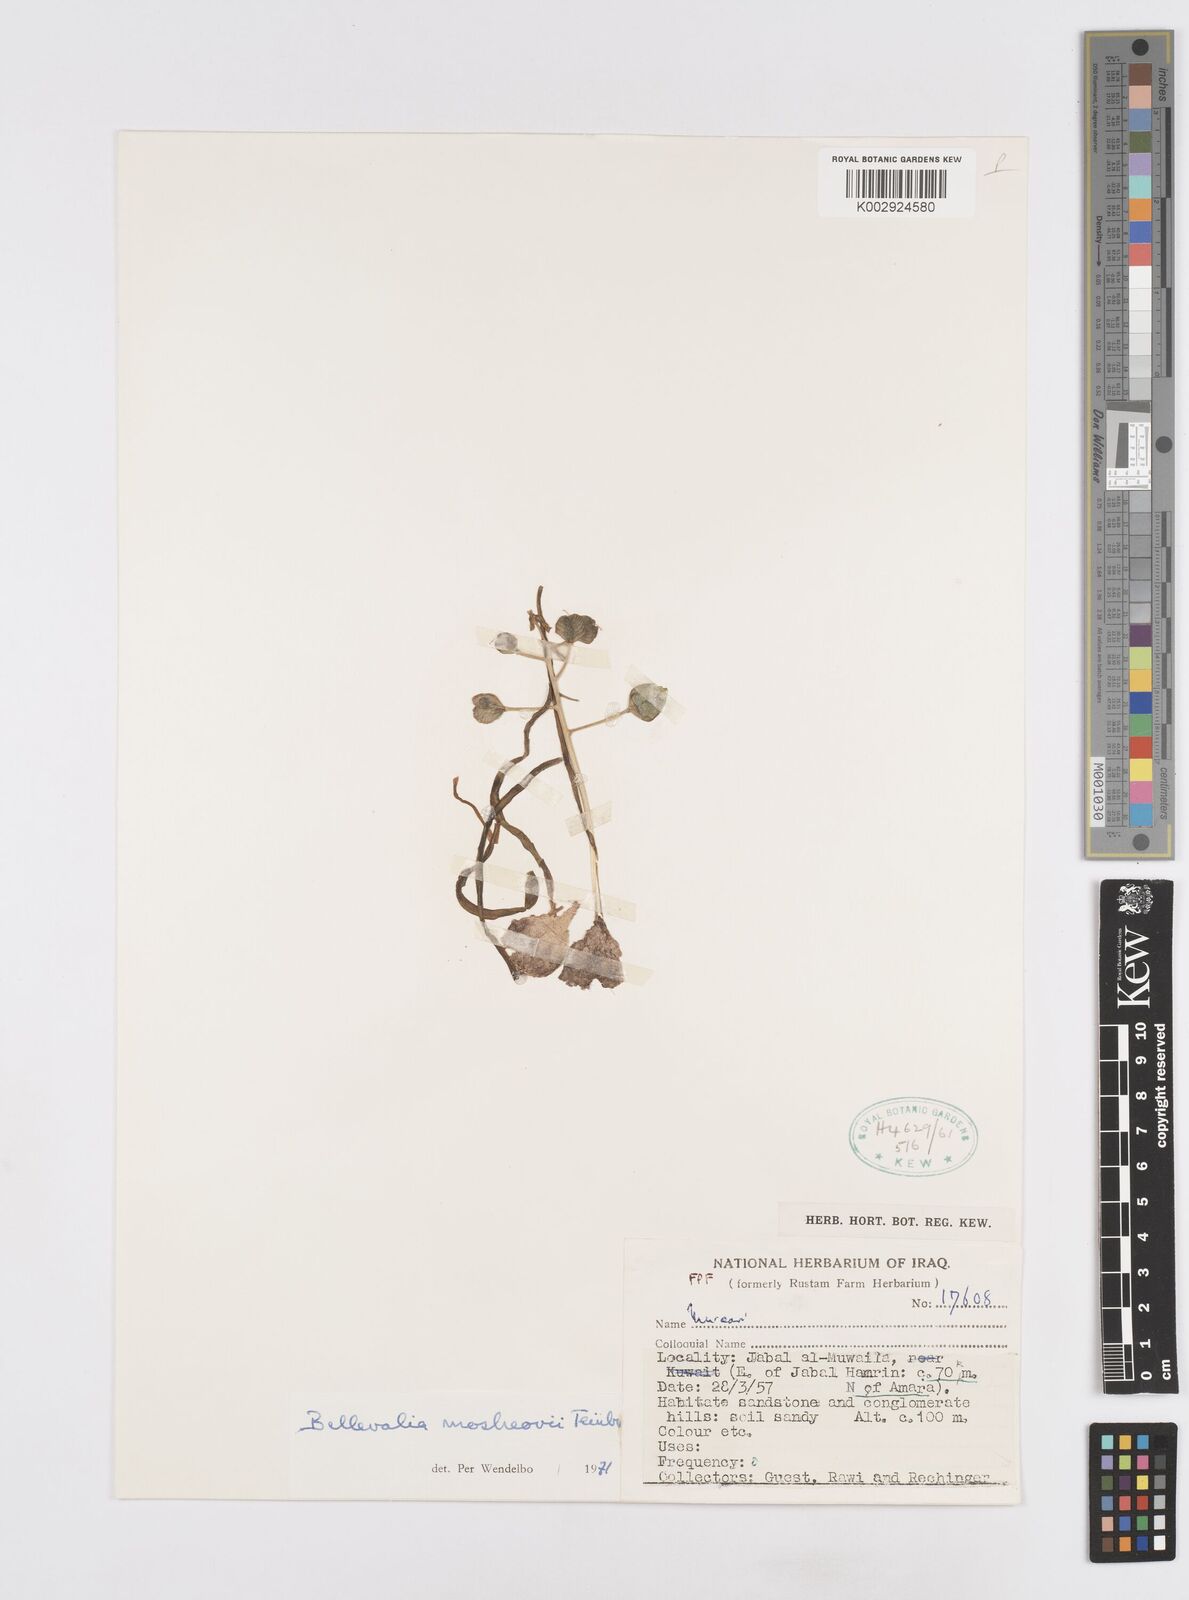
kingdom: Plantae
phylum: Tracheophyta
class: Liliopsida
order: Asparagales
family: Asparagaceae
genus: Bellevalia
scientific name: Bellevalia mosheovii
